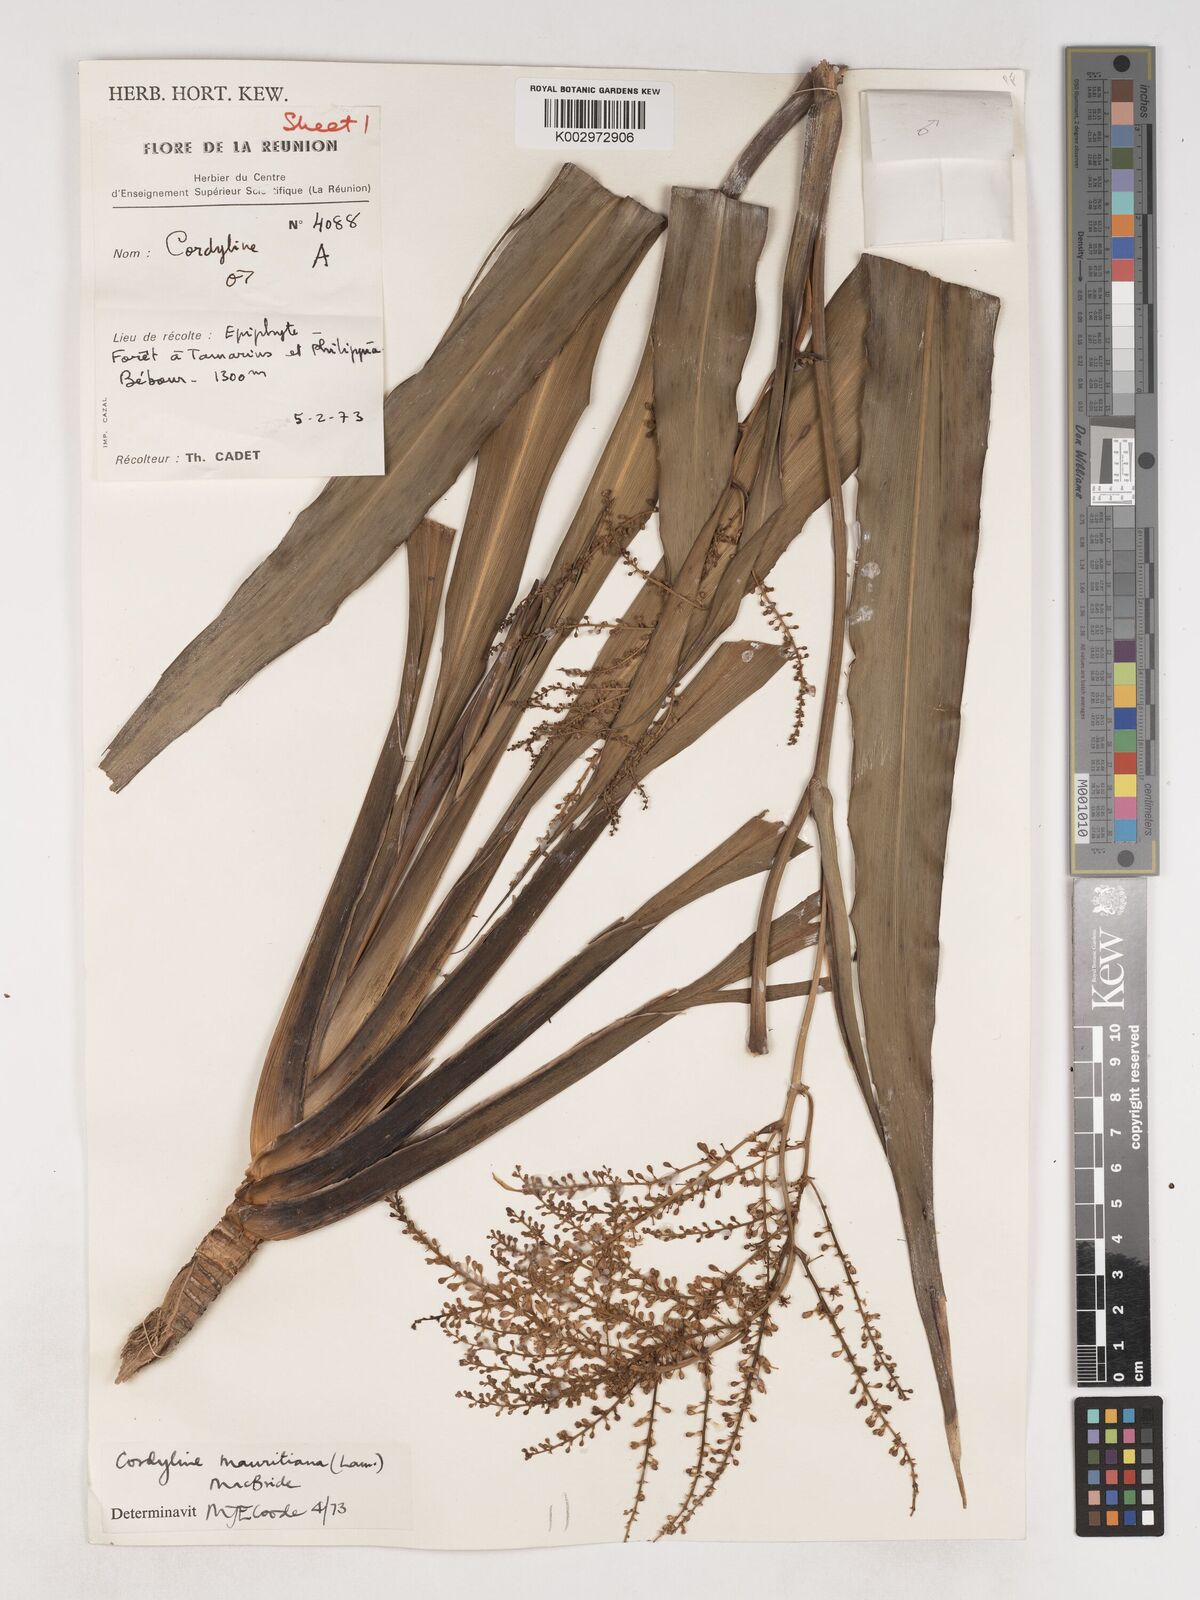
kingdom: Plantae
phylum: Tracheophyta
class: Liliopsida
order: Asparagales
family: Asparagaceae
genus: Cordyline
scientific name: Cordyline mauritiana
